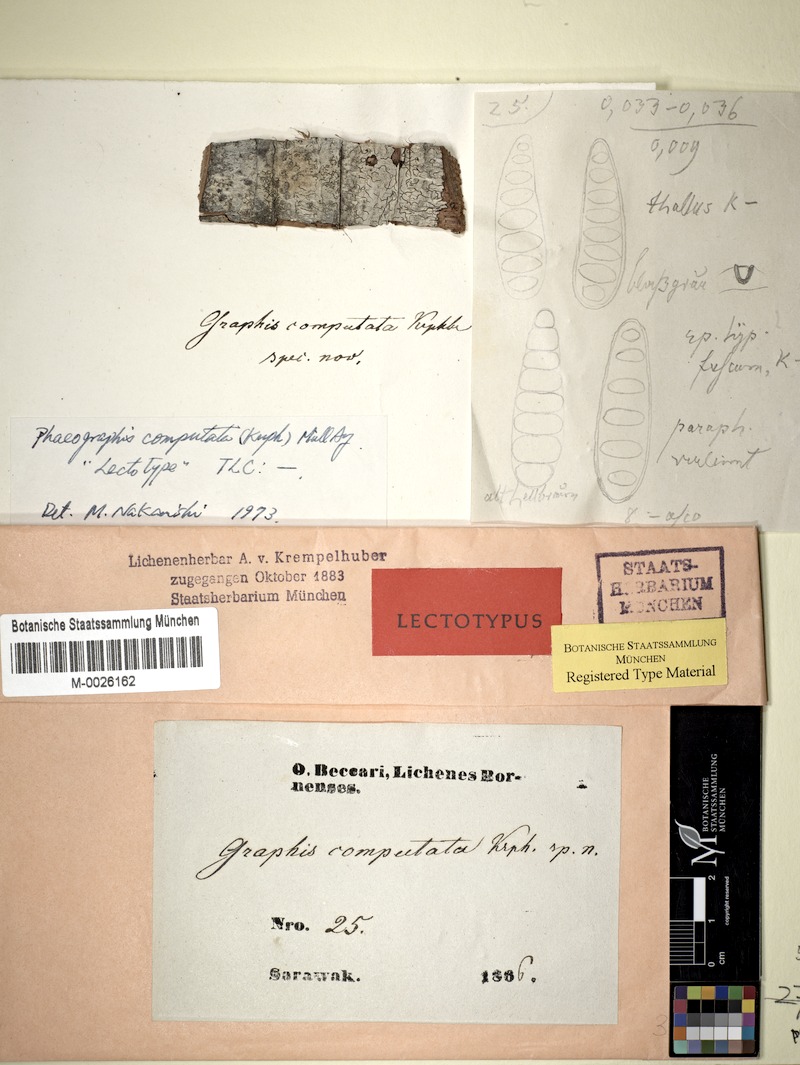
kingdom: Fungi
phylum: Ascomycota
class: Lecanoromycetes
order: Ostropales
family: Graphidaceae
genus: Platygramme
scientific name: Platygramme computata
